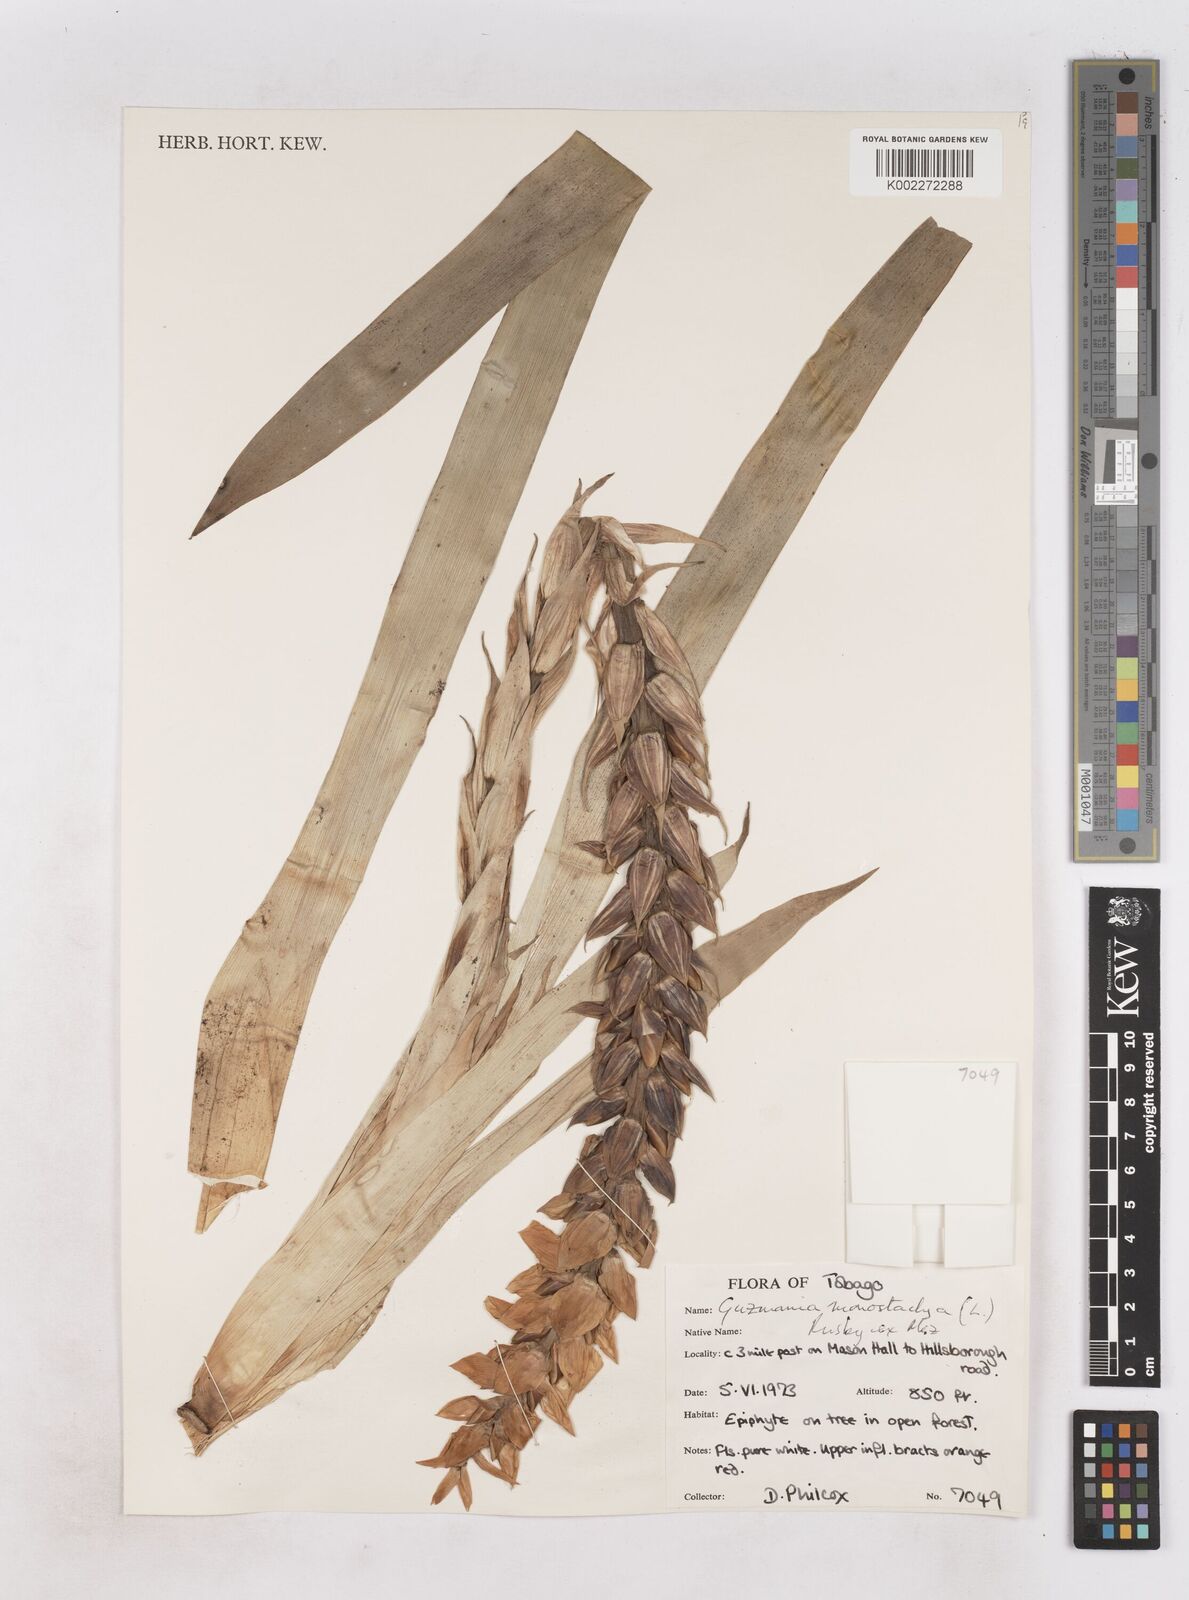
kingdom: Plantae
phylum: Tracheophyta
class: Liliopsida
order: Poales
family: Bromeliaceae
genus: Guzmania
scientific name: Guzmania monostachia
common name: West indian tufted airplant
